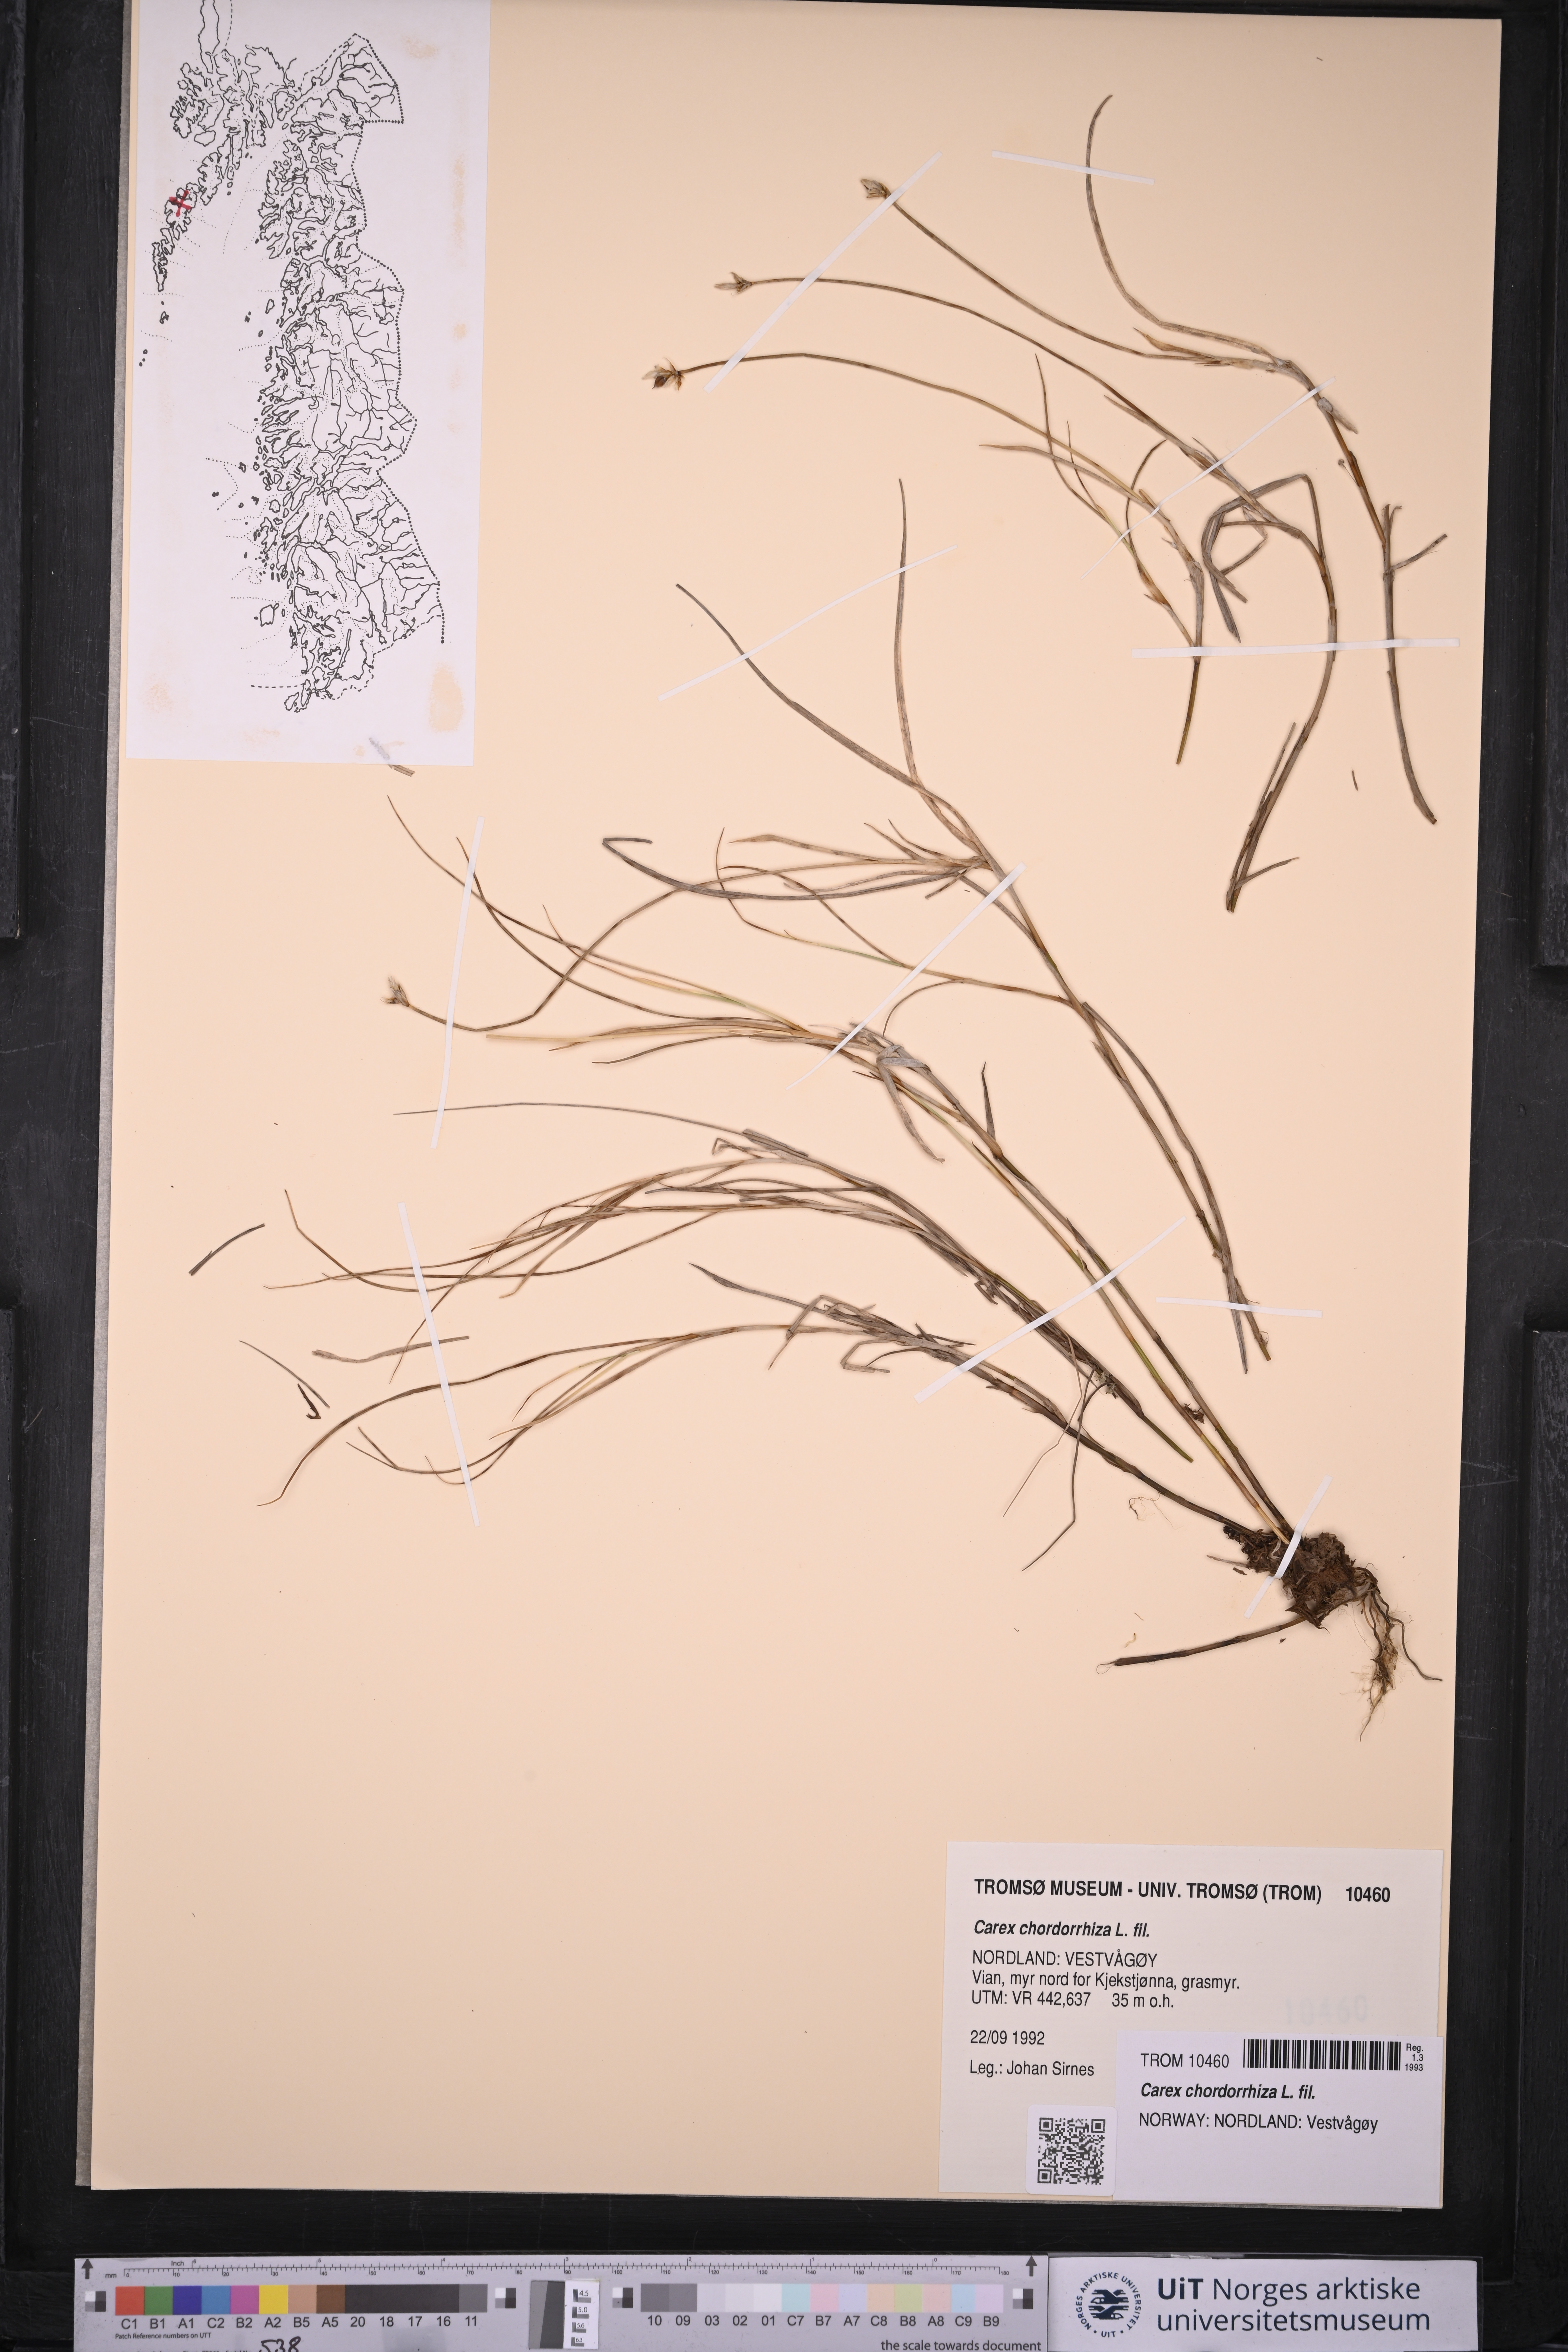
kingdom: Plantae
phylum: Tracheophyta
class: Liliopsida
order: Poales
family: Cyperaceae
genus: Carex
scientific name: Carex chordorrhiza
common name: String sedge
